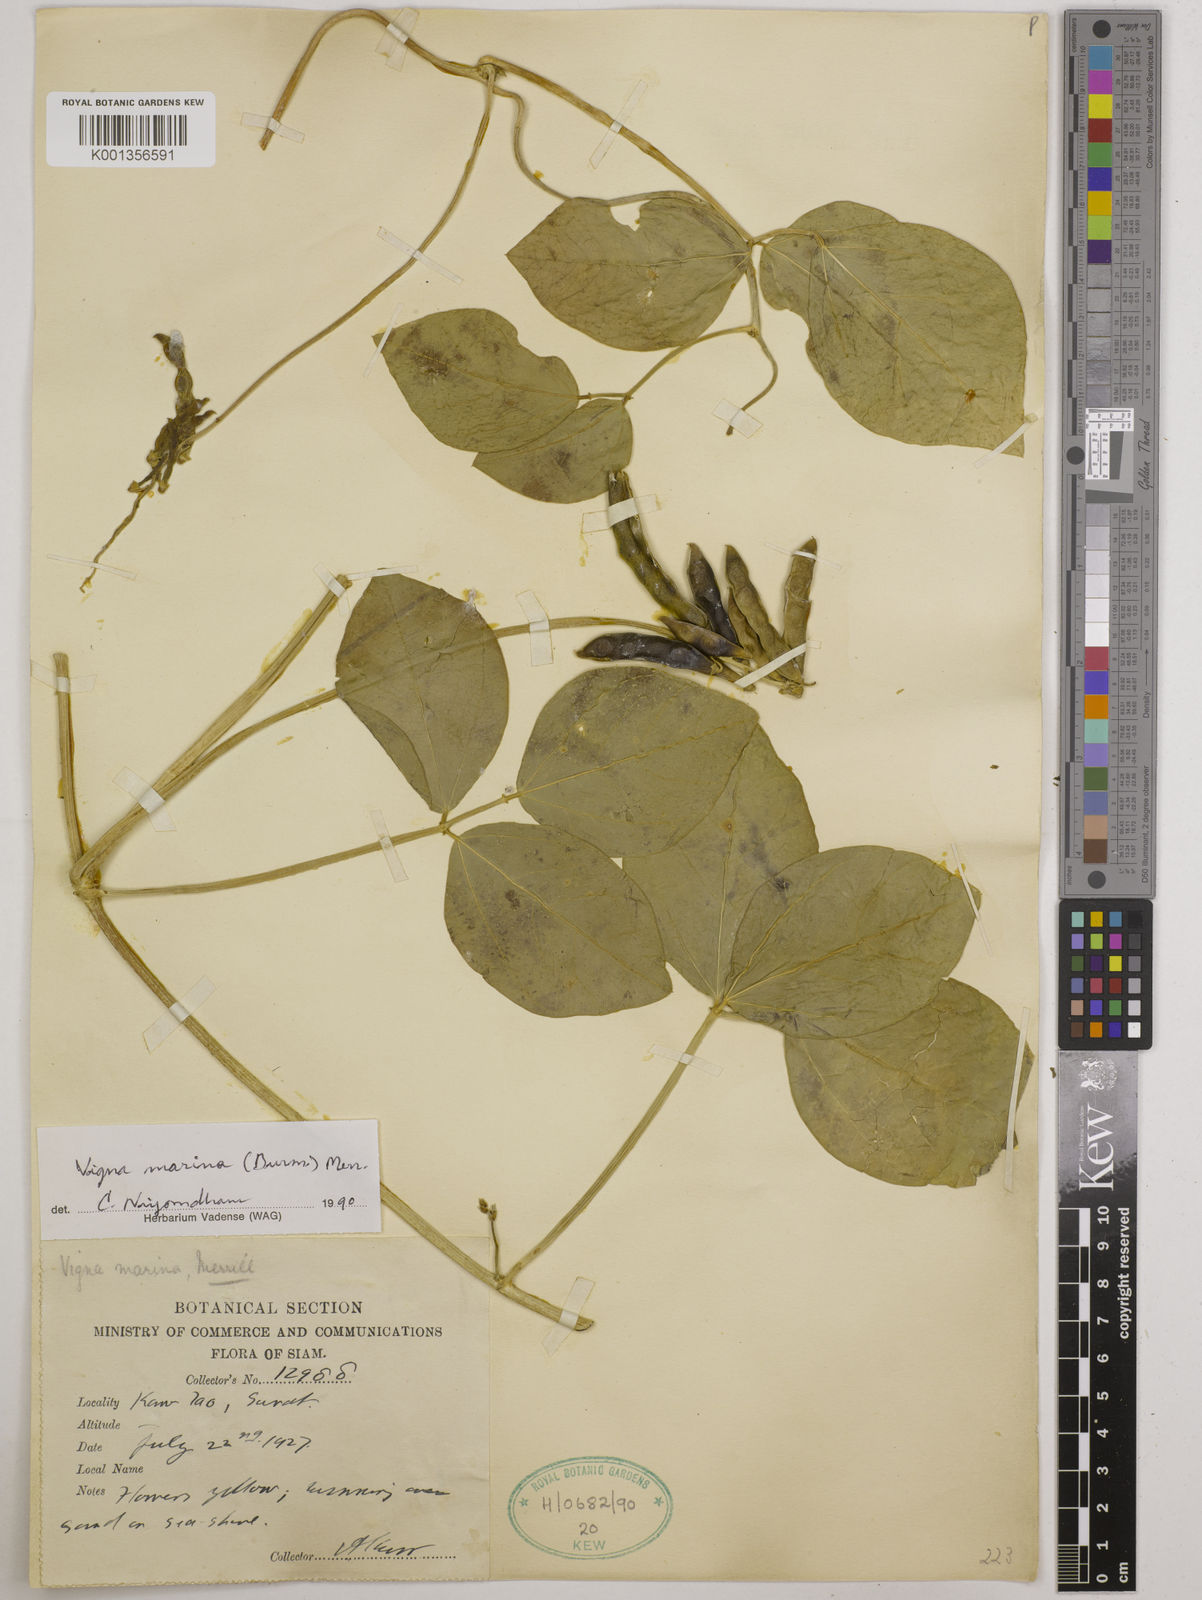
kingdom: Plantae
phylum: Tracheophyta
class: Magnoliopsida
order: Fabales
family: Fabaceae
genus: Vigna
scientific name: Vigna marina
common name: Dune-bean
